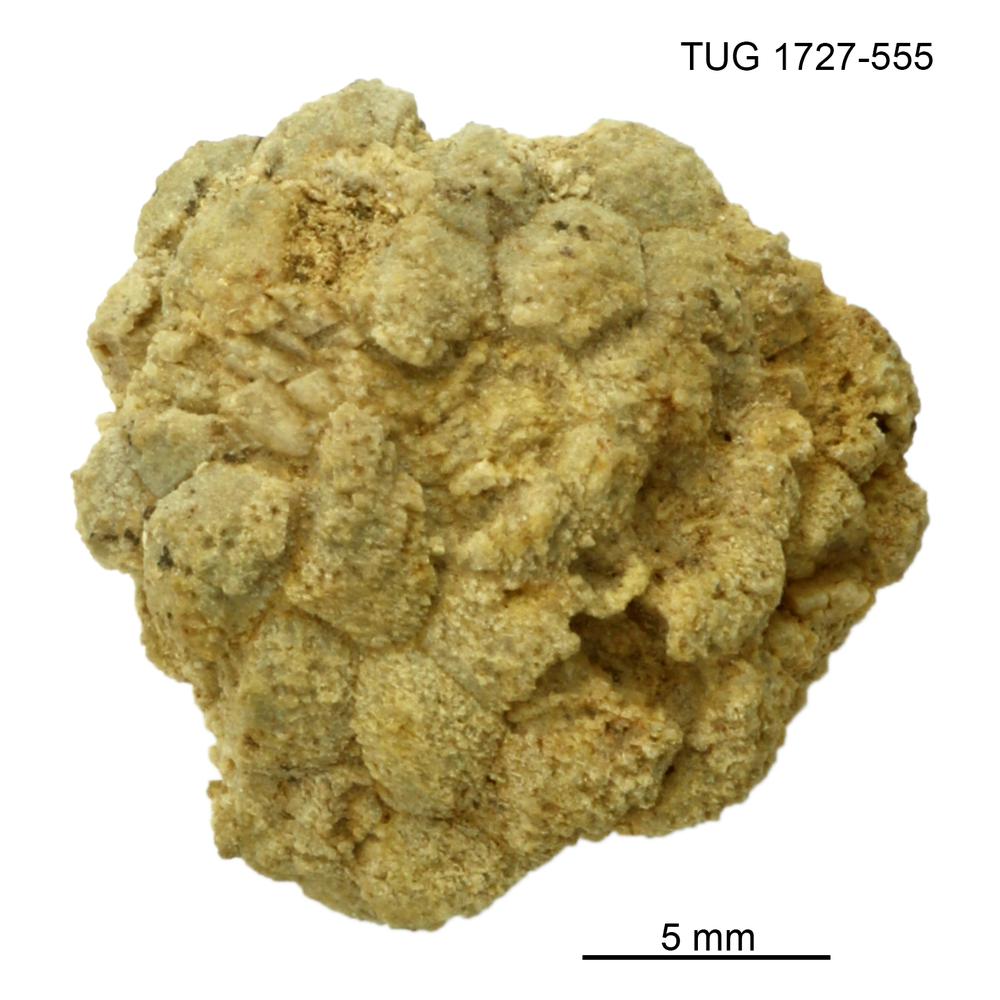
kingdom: Animalia
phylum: Echinodermata
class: Crinoidea
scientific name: Crinoidea
